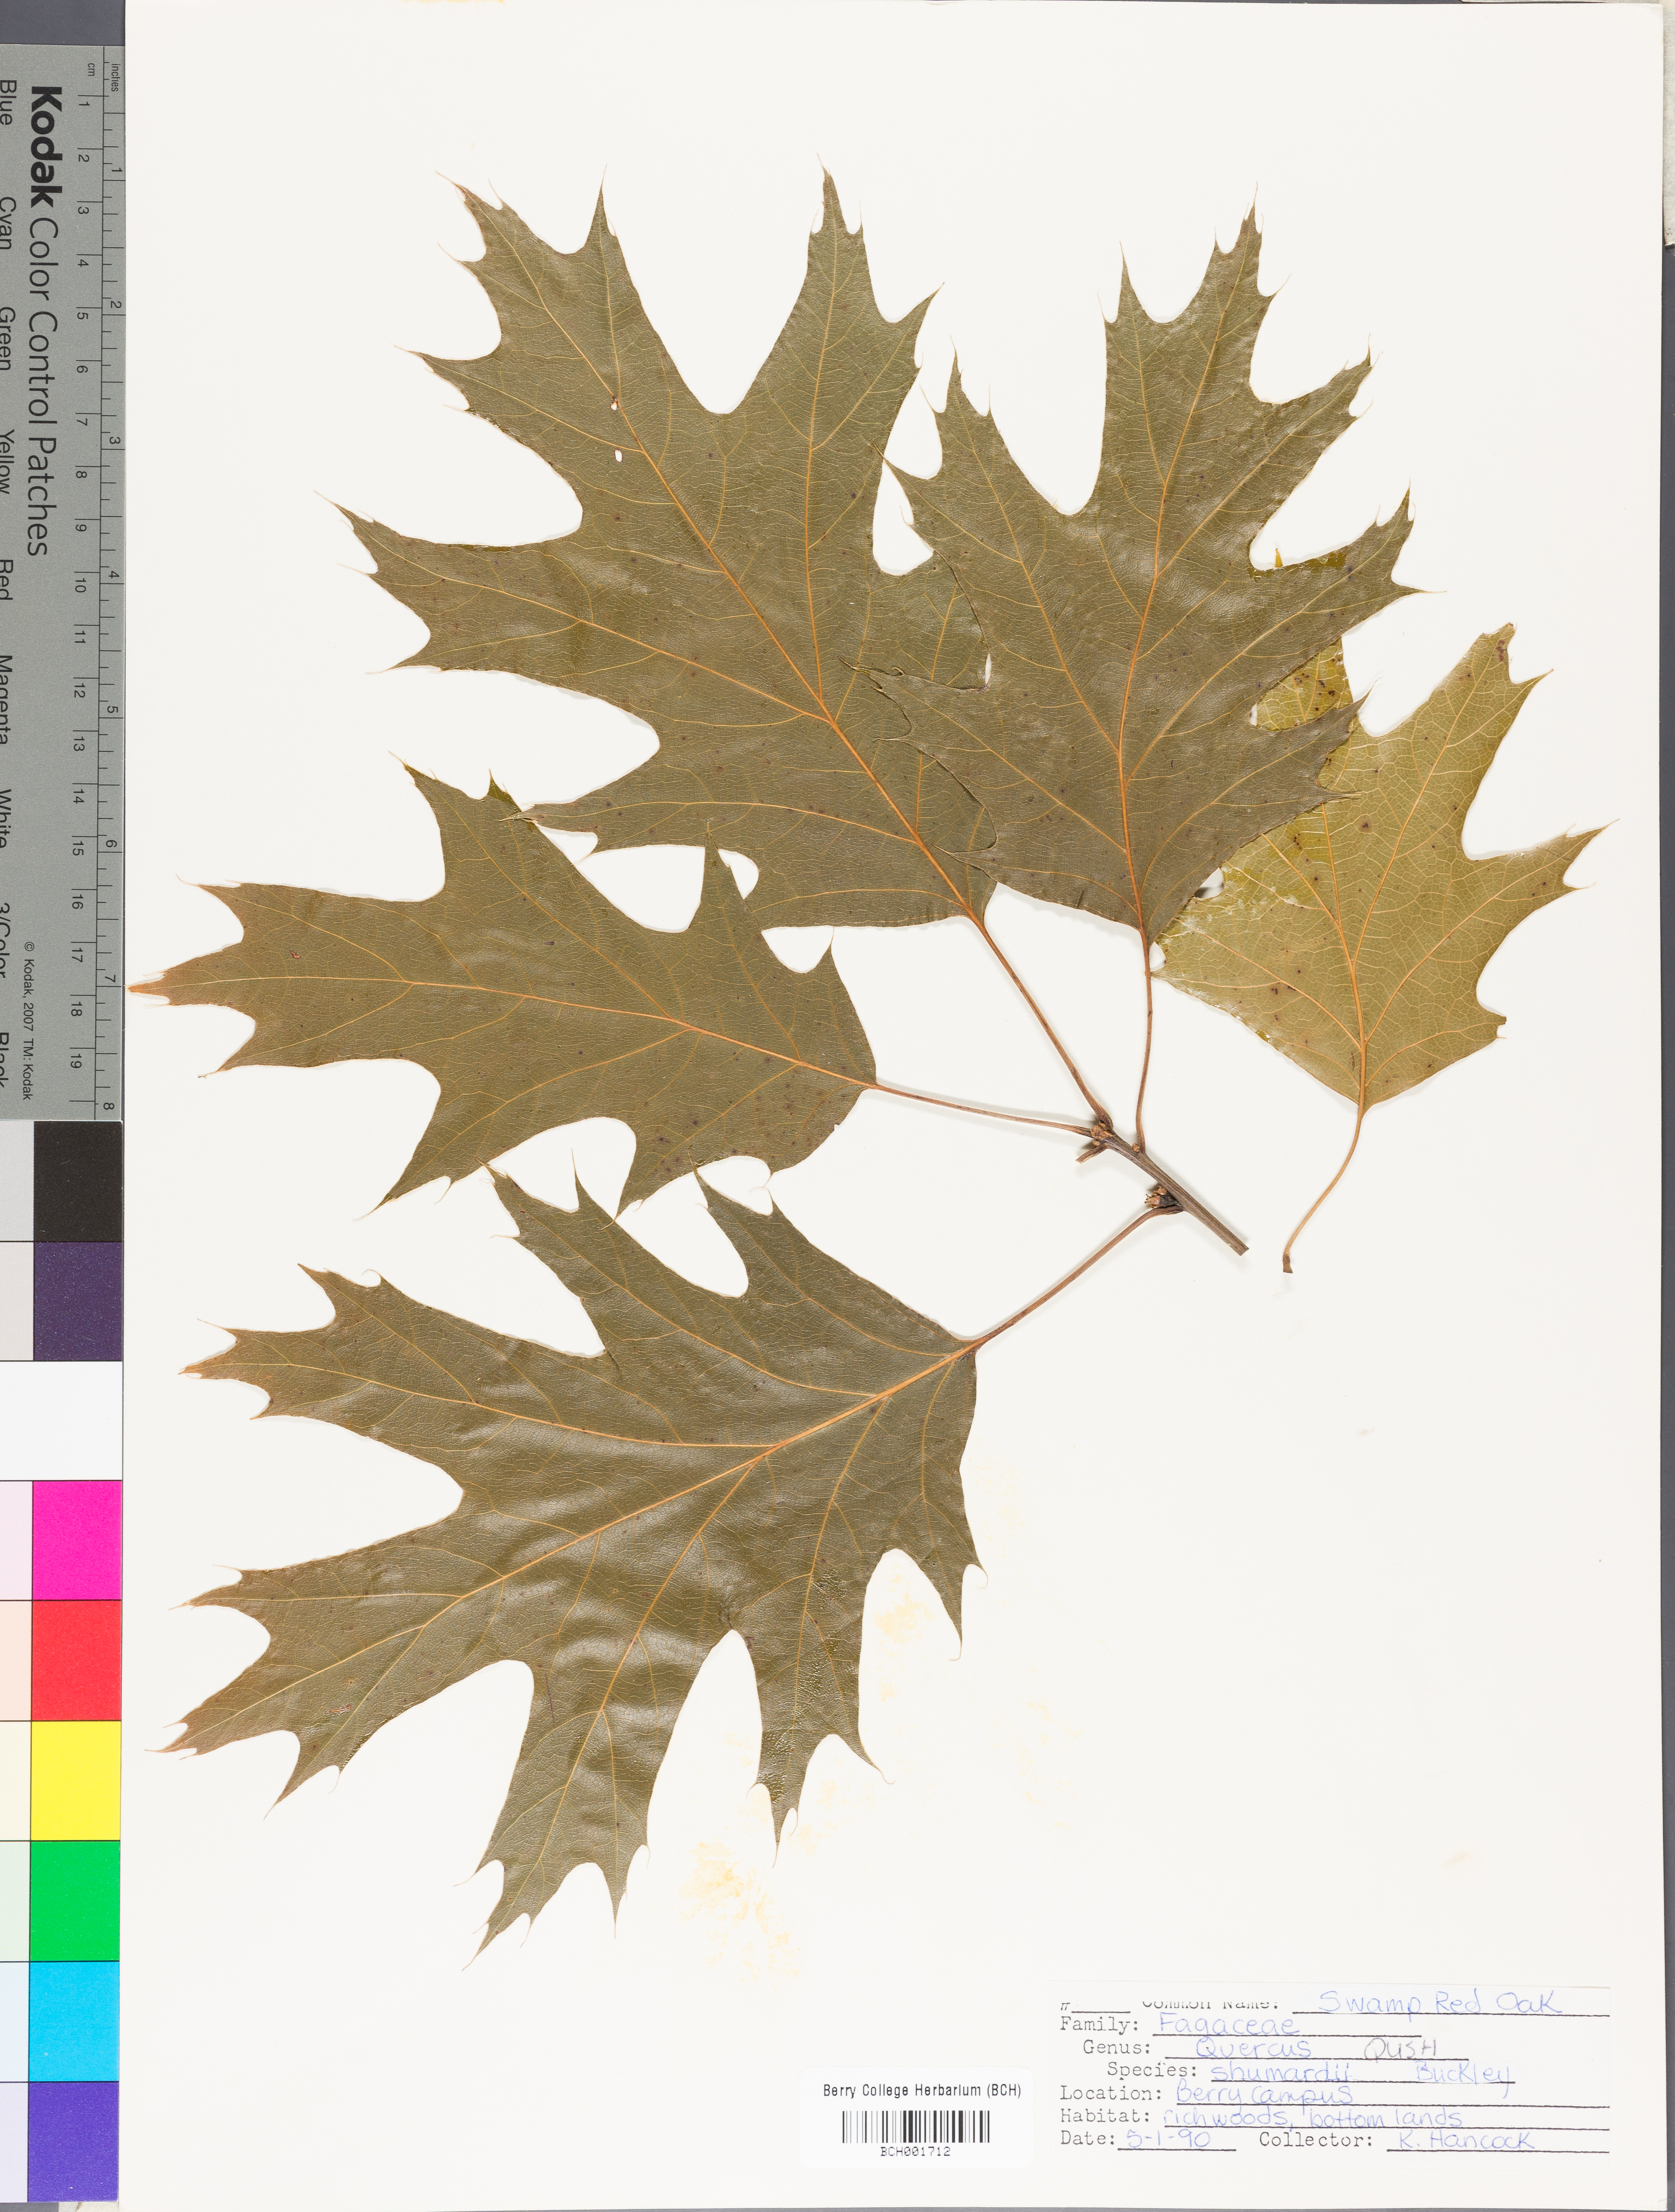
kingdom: Plantae
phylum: Tracheophyta
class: Magnoliopsida
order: Fagales
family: Fagaceae
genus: Quercus
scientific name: Quercus shumardii
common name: Shumard oak
